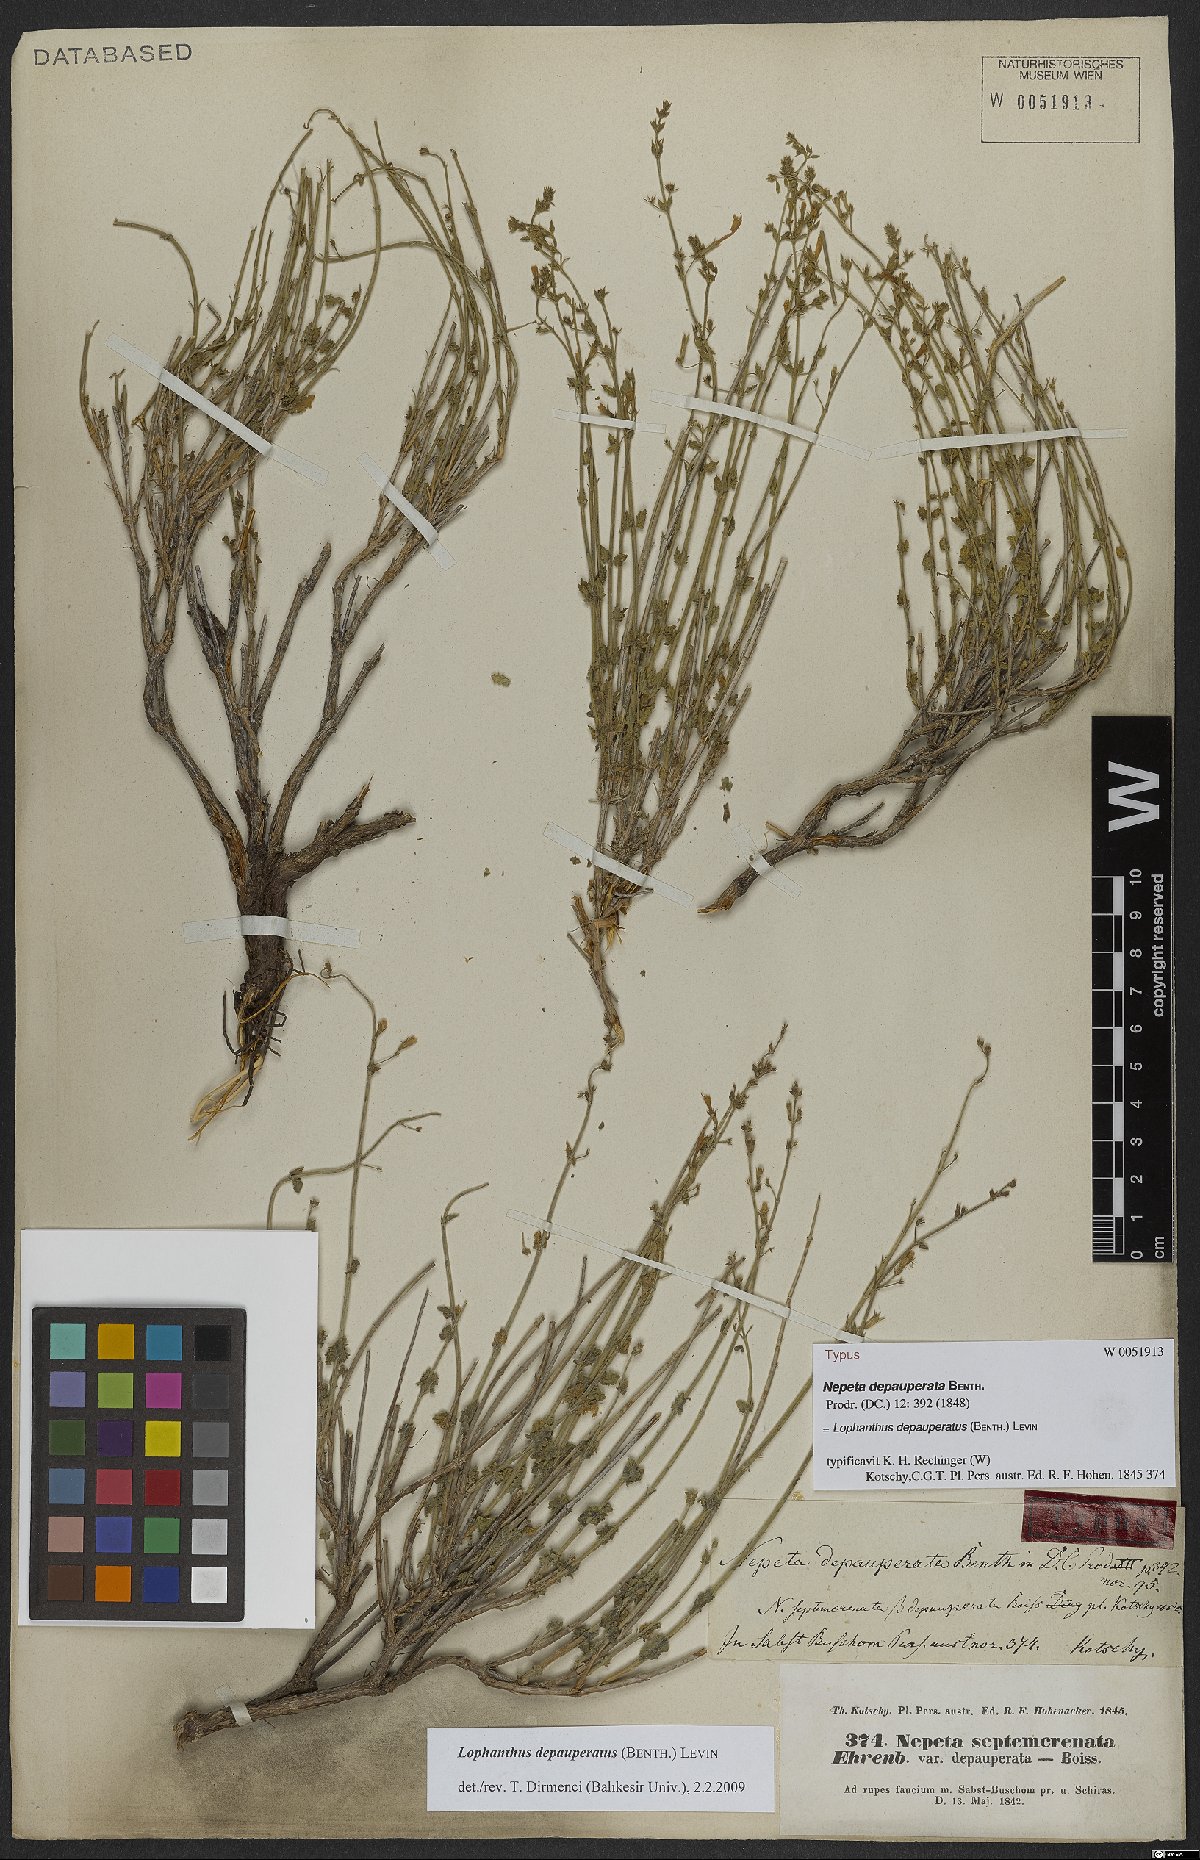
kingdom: Plantae
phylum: Tracheophyta
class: Magnoliopsida
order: Lamiales
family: Lamiaceae
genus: Nepeta
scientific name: Nepeta depauperata
